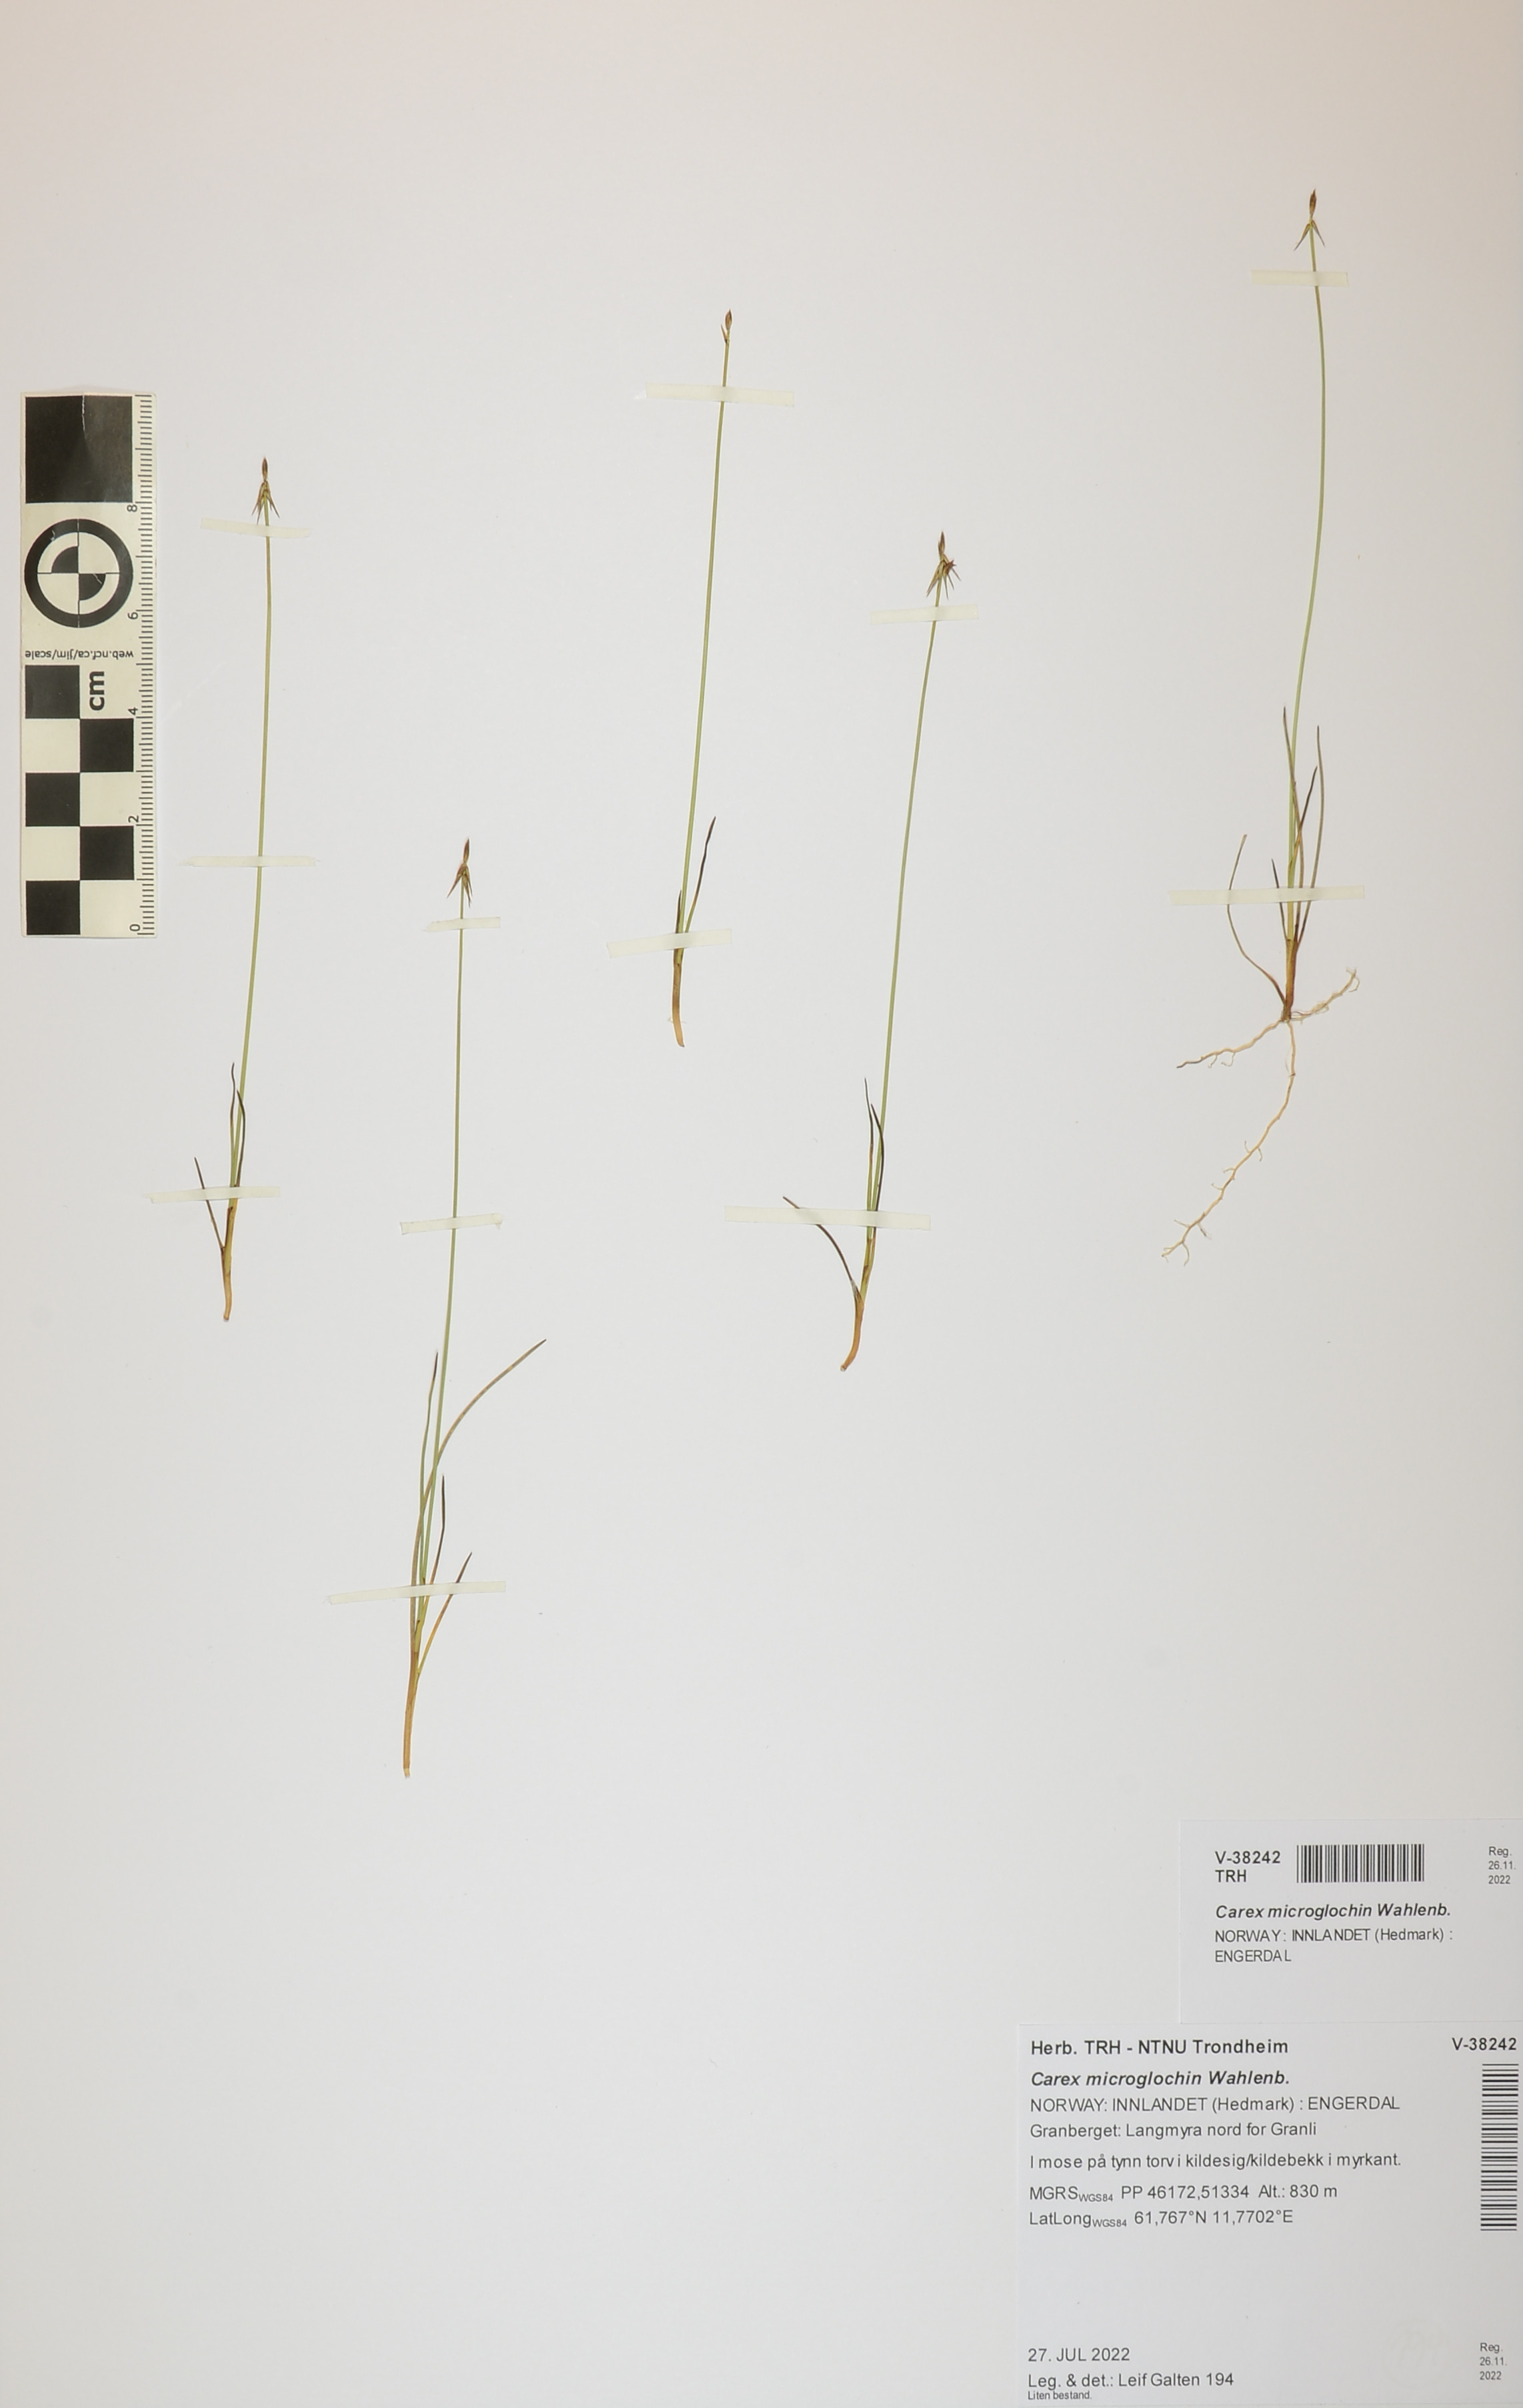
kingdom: Plantae
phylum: Tracheophyta
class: Liliopsida
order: Poales
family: Cyperaceae
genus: Carex
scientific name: Carex microglochin
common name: Bristle sedge
